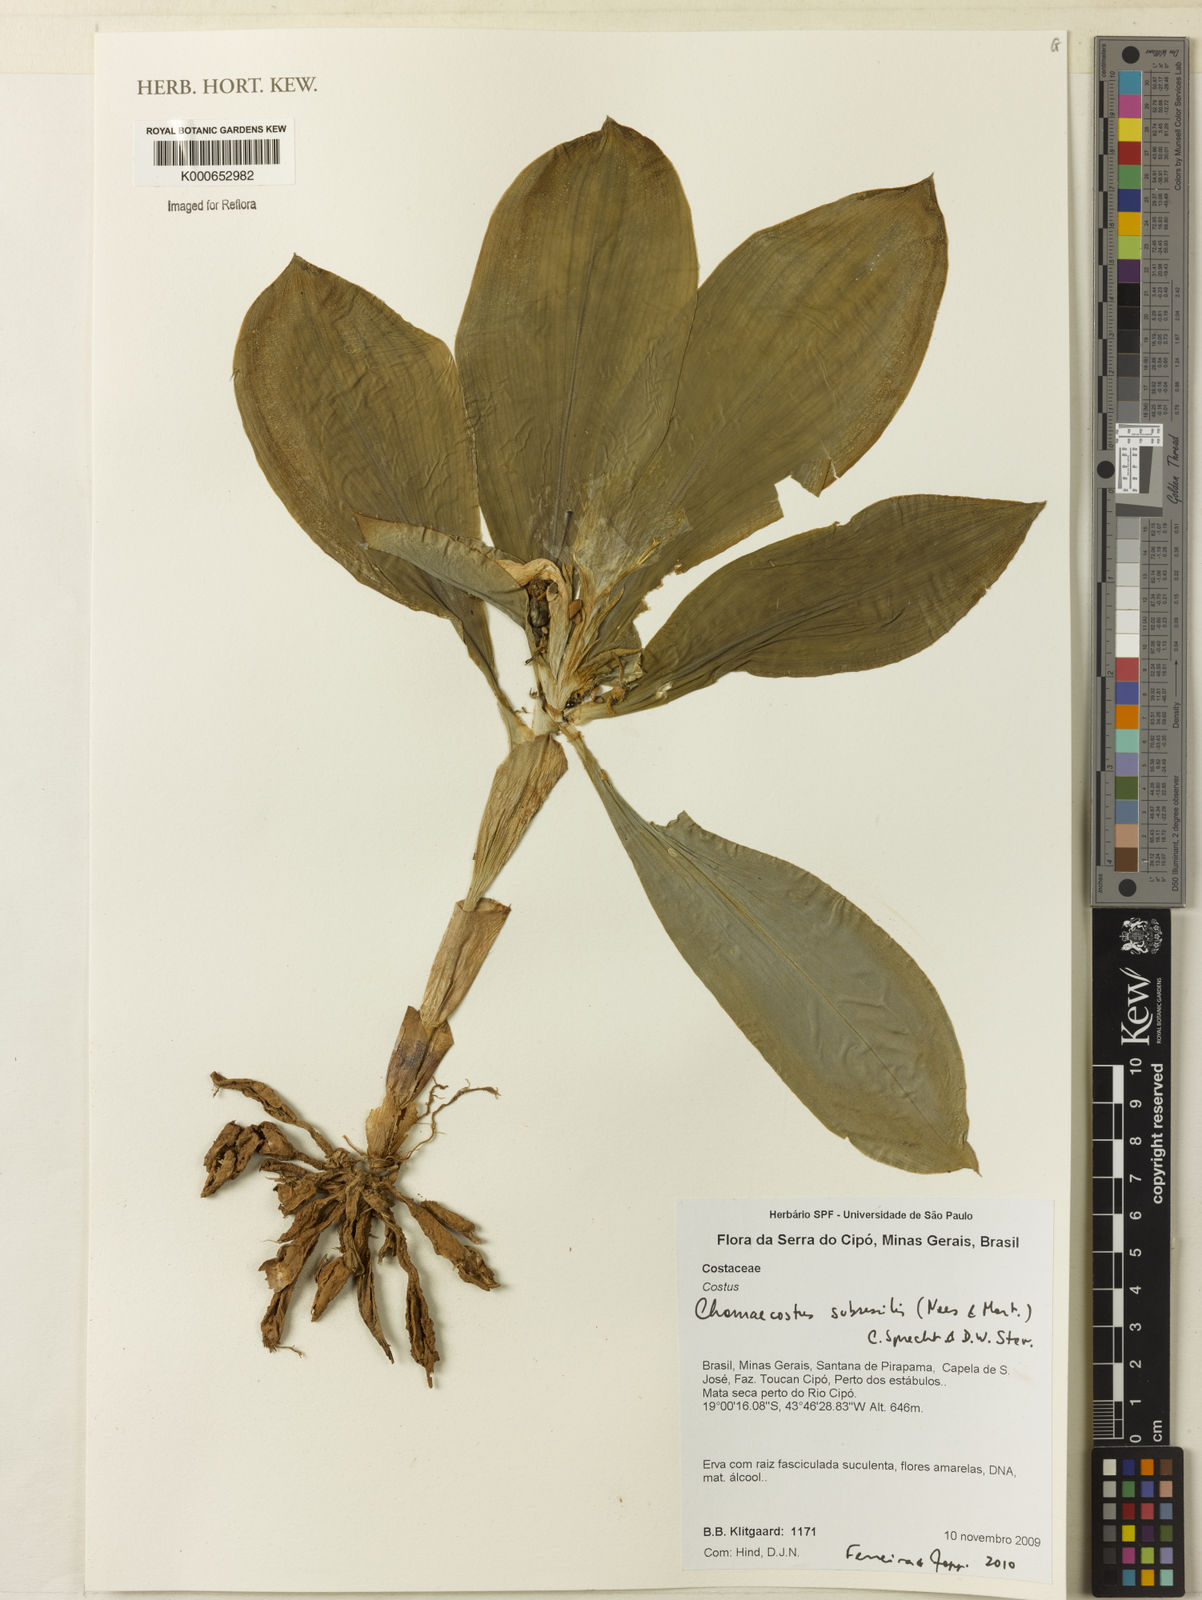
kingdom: Plantae
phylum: Tracheophyta
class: Liliopsida
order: Zingiberales
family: Costaceae
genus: Chamaecostus
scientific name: Chamaecostus subsessilis
